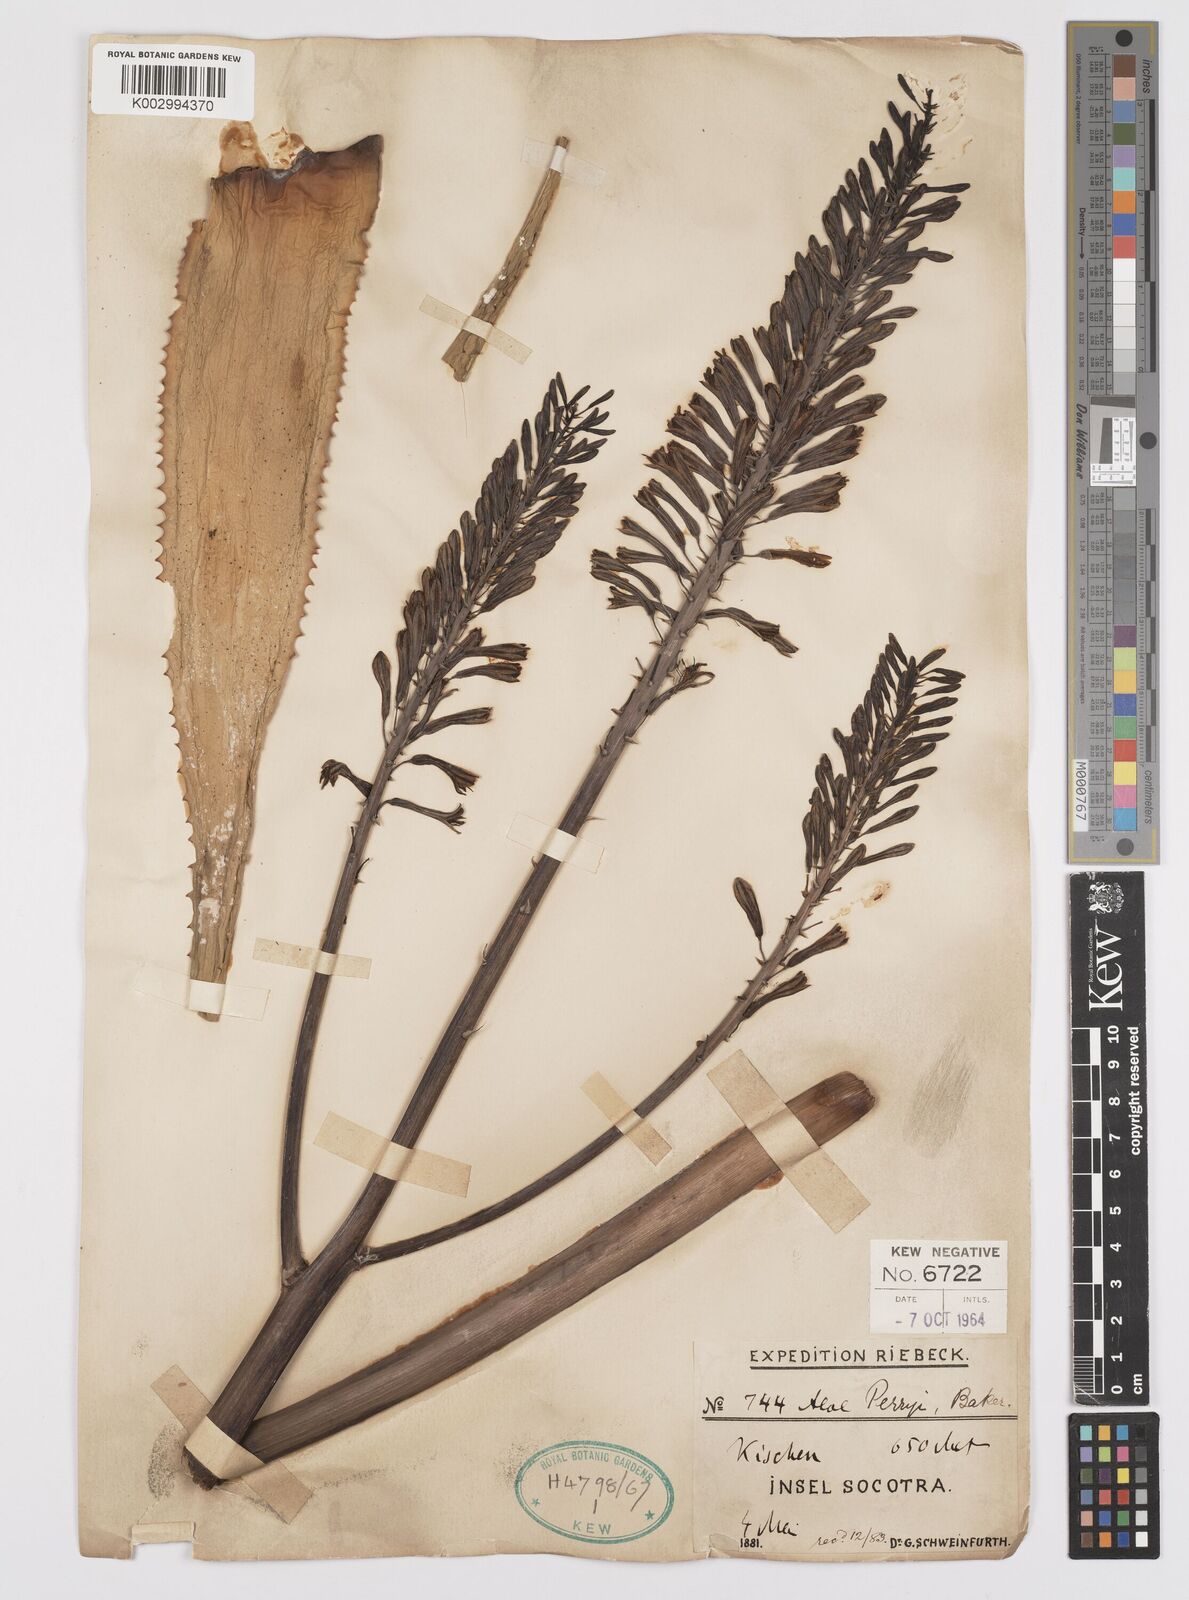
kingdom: Plantae
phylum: Tracheophyta
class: Liliopsida
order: Asparagales
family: Asphodelaceae
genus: Aloe
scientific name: Aloe perryi
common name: Socotrine aloe
